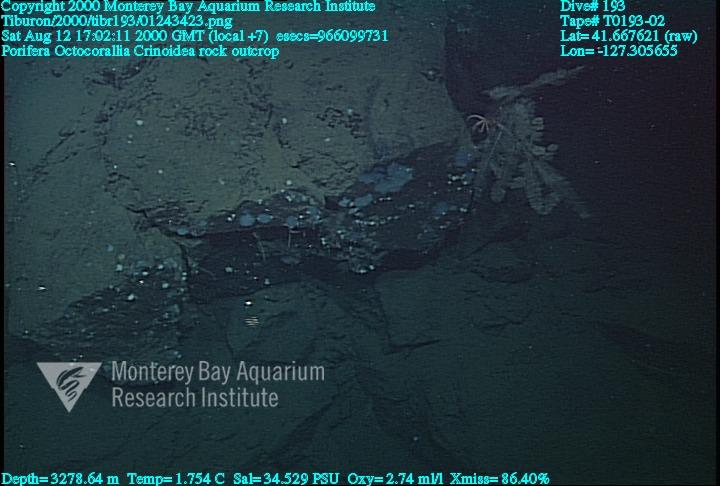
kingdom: Animalia
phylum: Porifera
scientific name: Porifera
